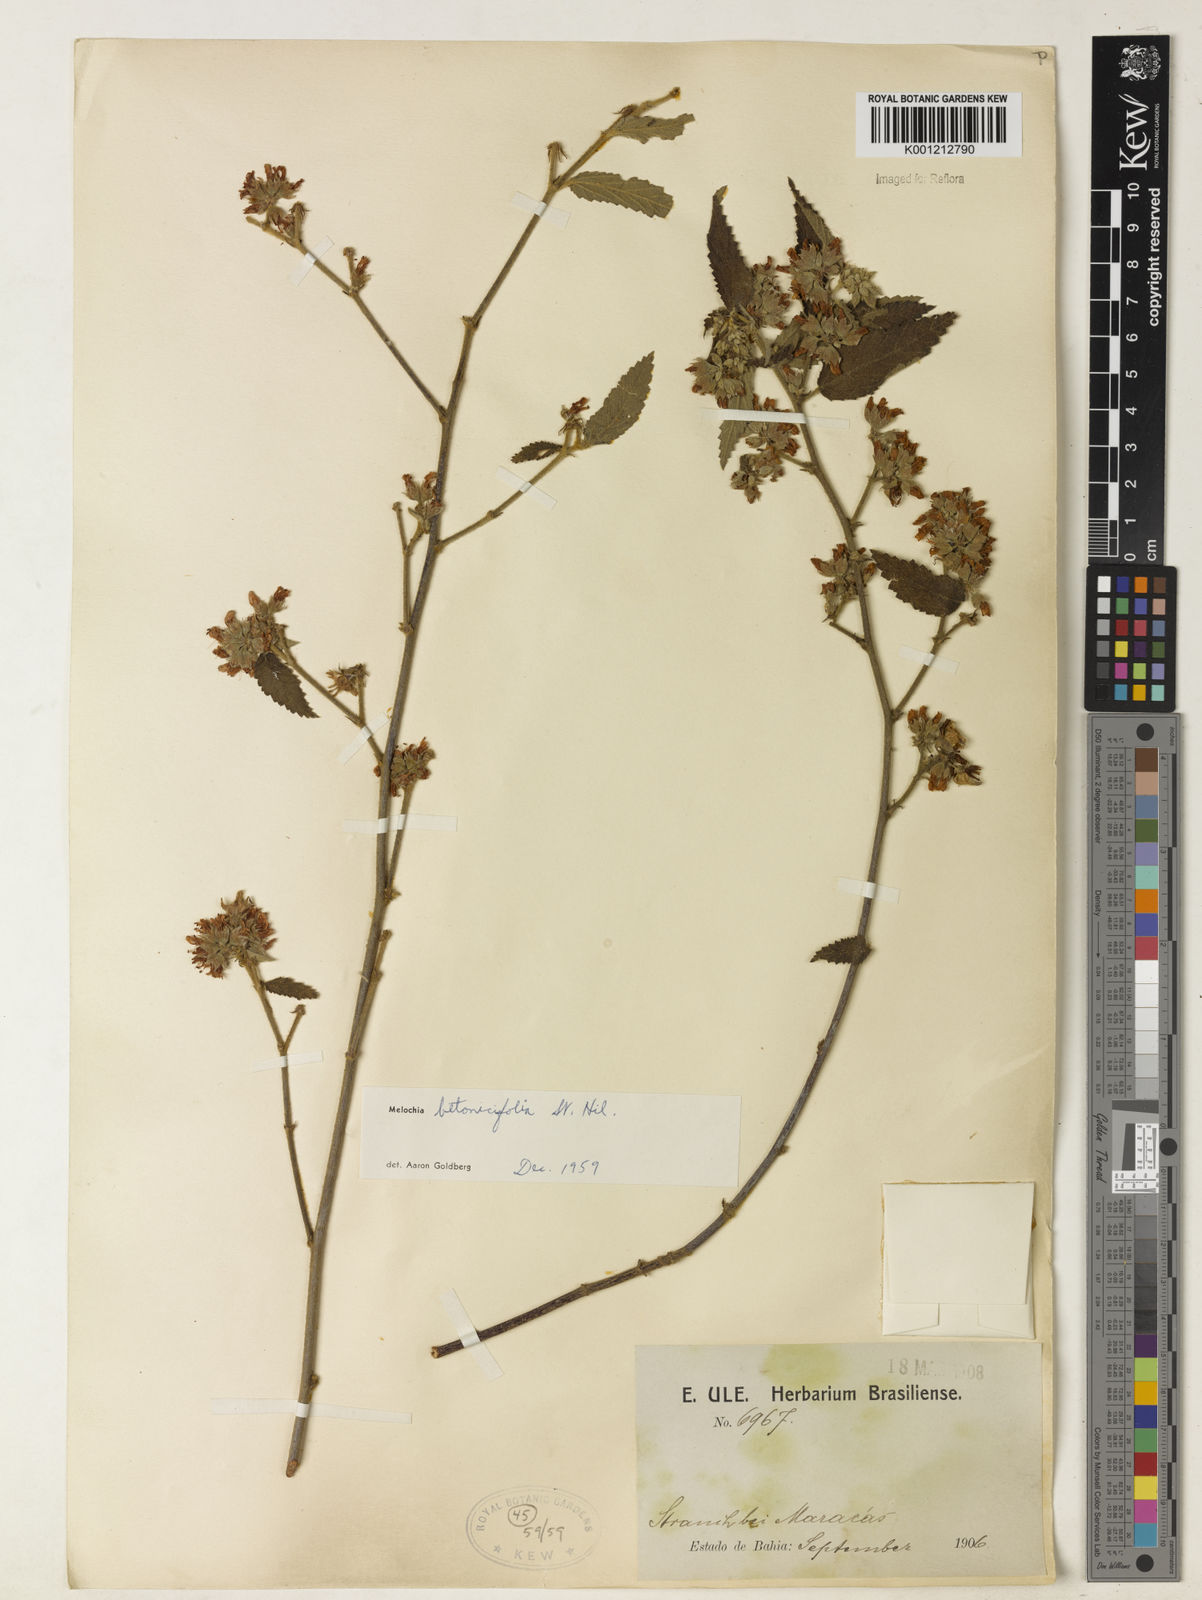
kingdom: Plantae
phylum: Tracheophyta
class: Magnoliopsida
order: Malvales
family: Malvaceae
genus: Melochia
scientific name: Melochia betonicifolia
